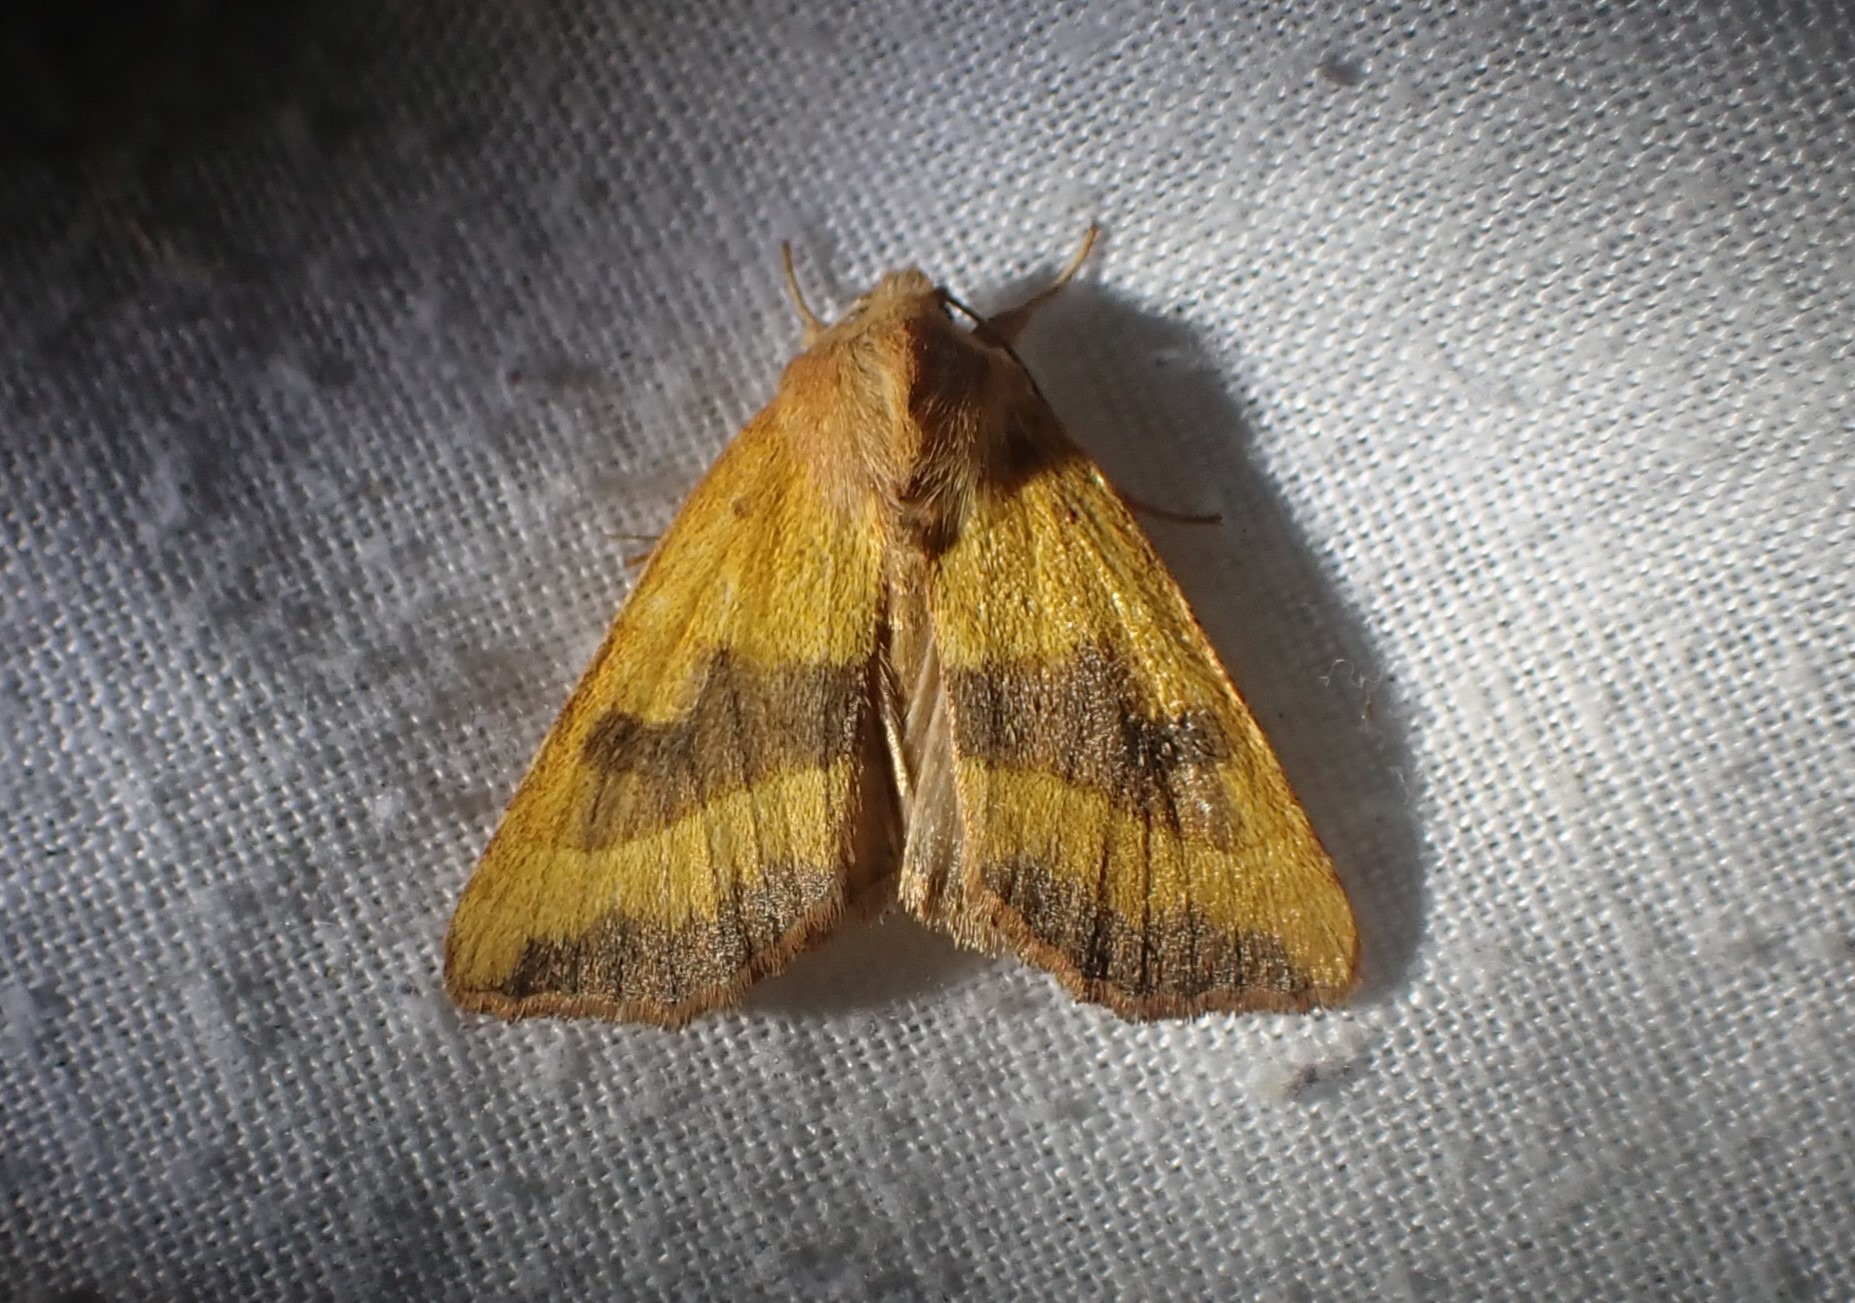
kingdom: Animalia
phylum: Arthropoda
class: Insecta
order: Lepidoptera
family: Noctuidae
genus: Atethmia
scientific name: Atethmia centrago
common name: Aske-septemberugle
